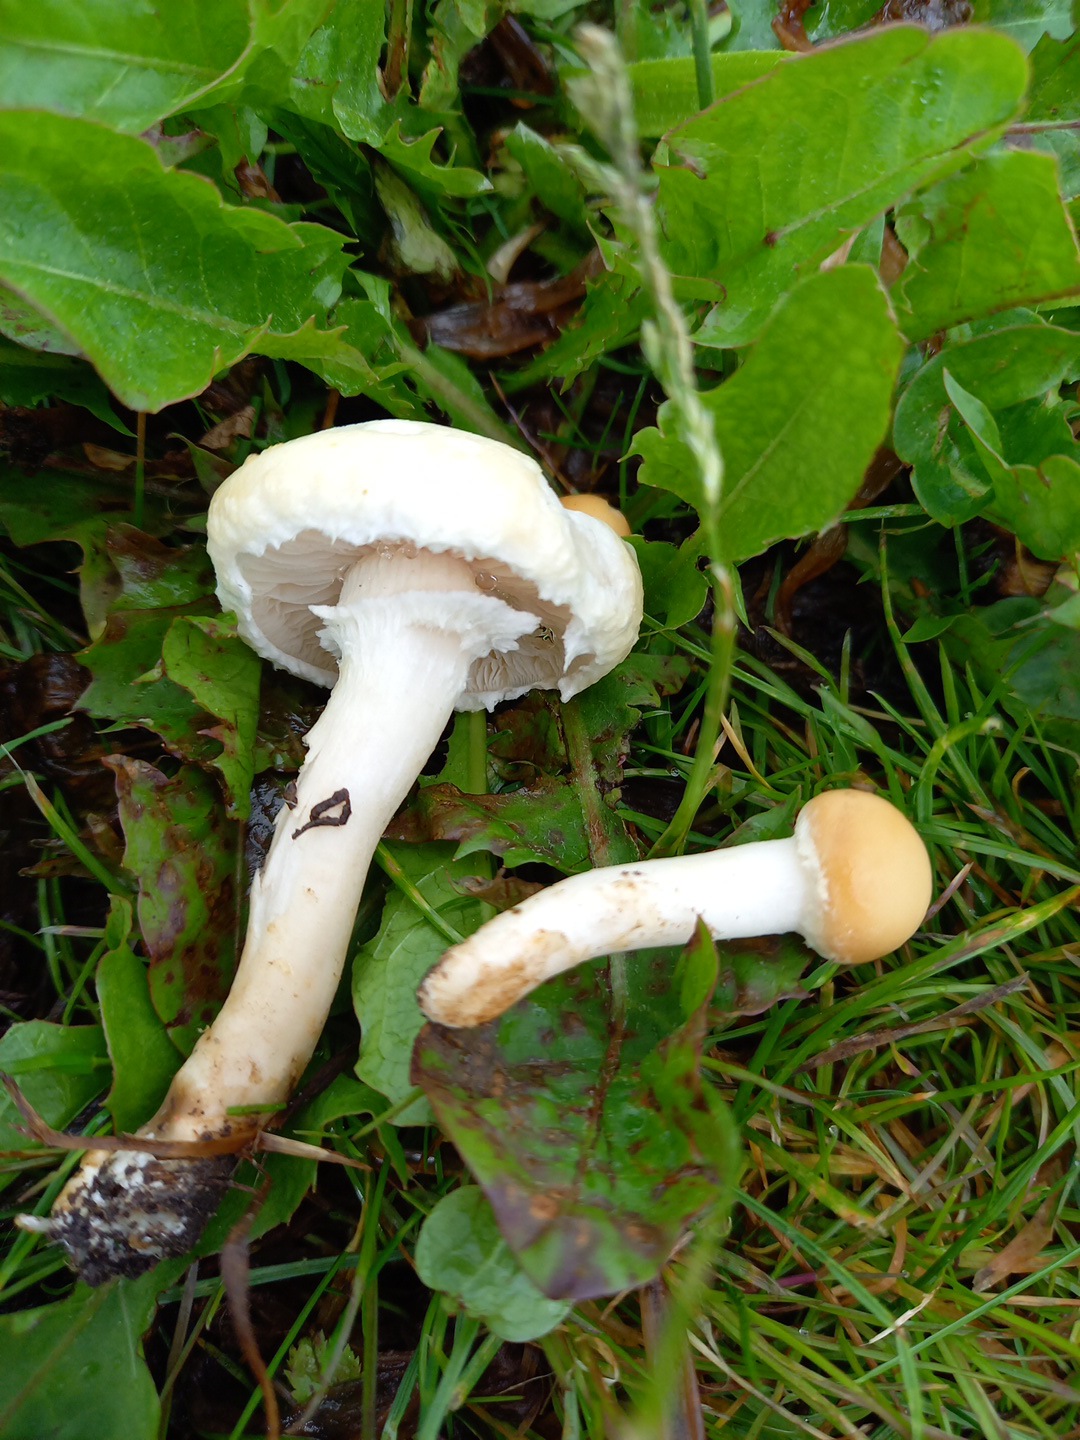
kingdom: Fungi
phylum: Basidiomycota
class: Agaricomycetes
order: Agaricales
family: Strophariaceae
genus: Agrocybe
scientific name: Agrocybe
